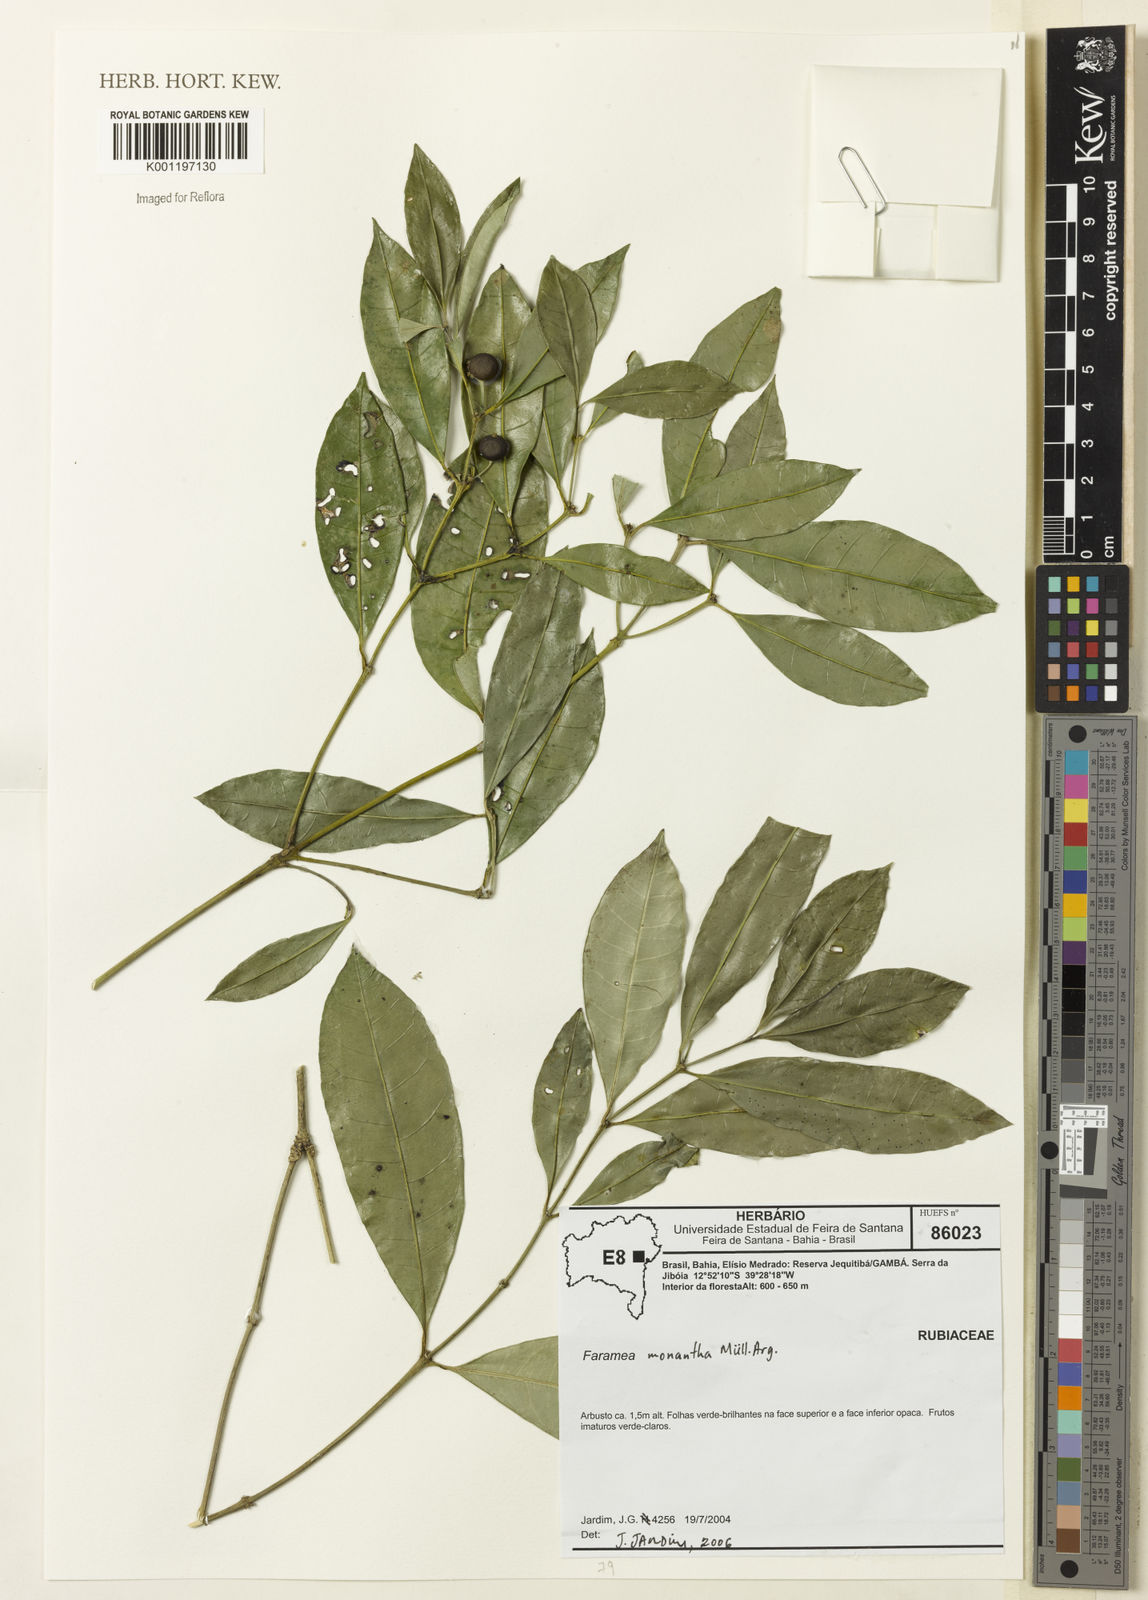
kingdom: Plantae
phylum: Tracheophyta
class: Magnoliopsida
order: Gentianales
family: Rubiaceae
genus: Faramea
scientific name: Faramea
